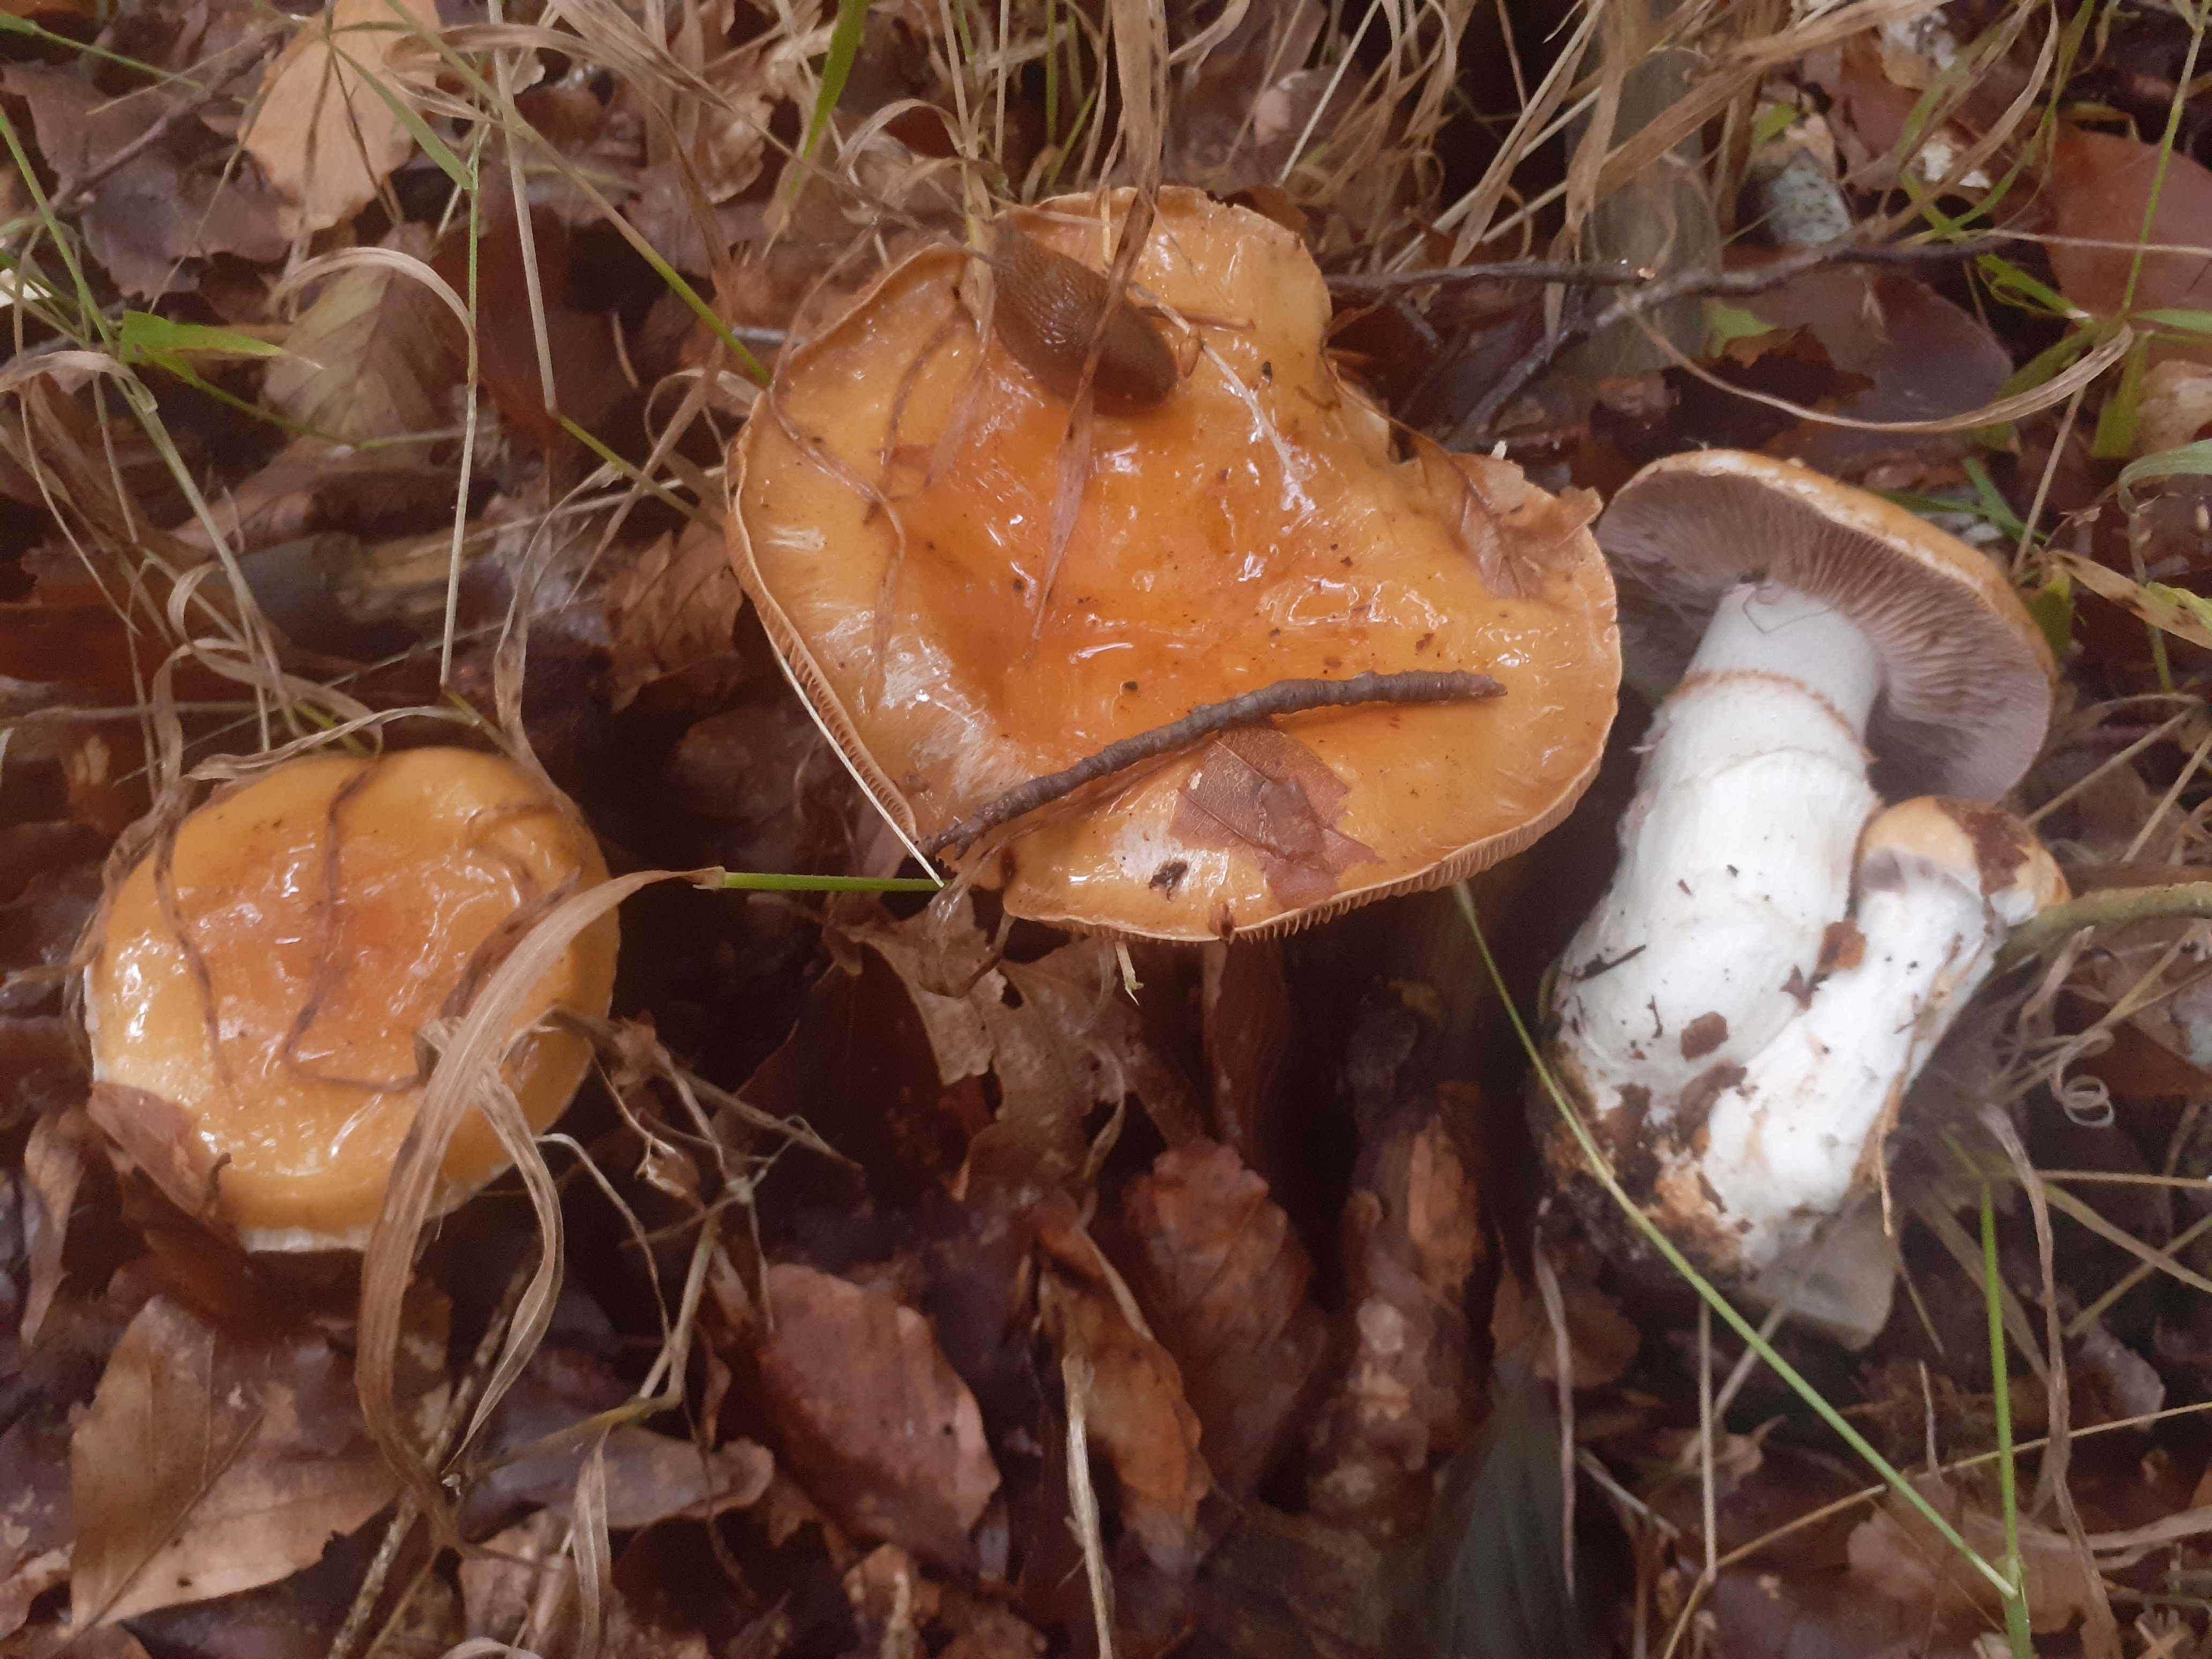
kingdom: Fungi
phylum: Basidiomycota
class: Agaricomycetes
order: Agaricales
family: Cortinariaceae
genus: Phlegmacium
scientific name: Phlegmacium vulpinum
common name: ringbæltet slørhat
